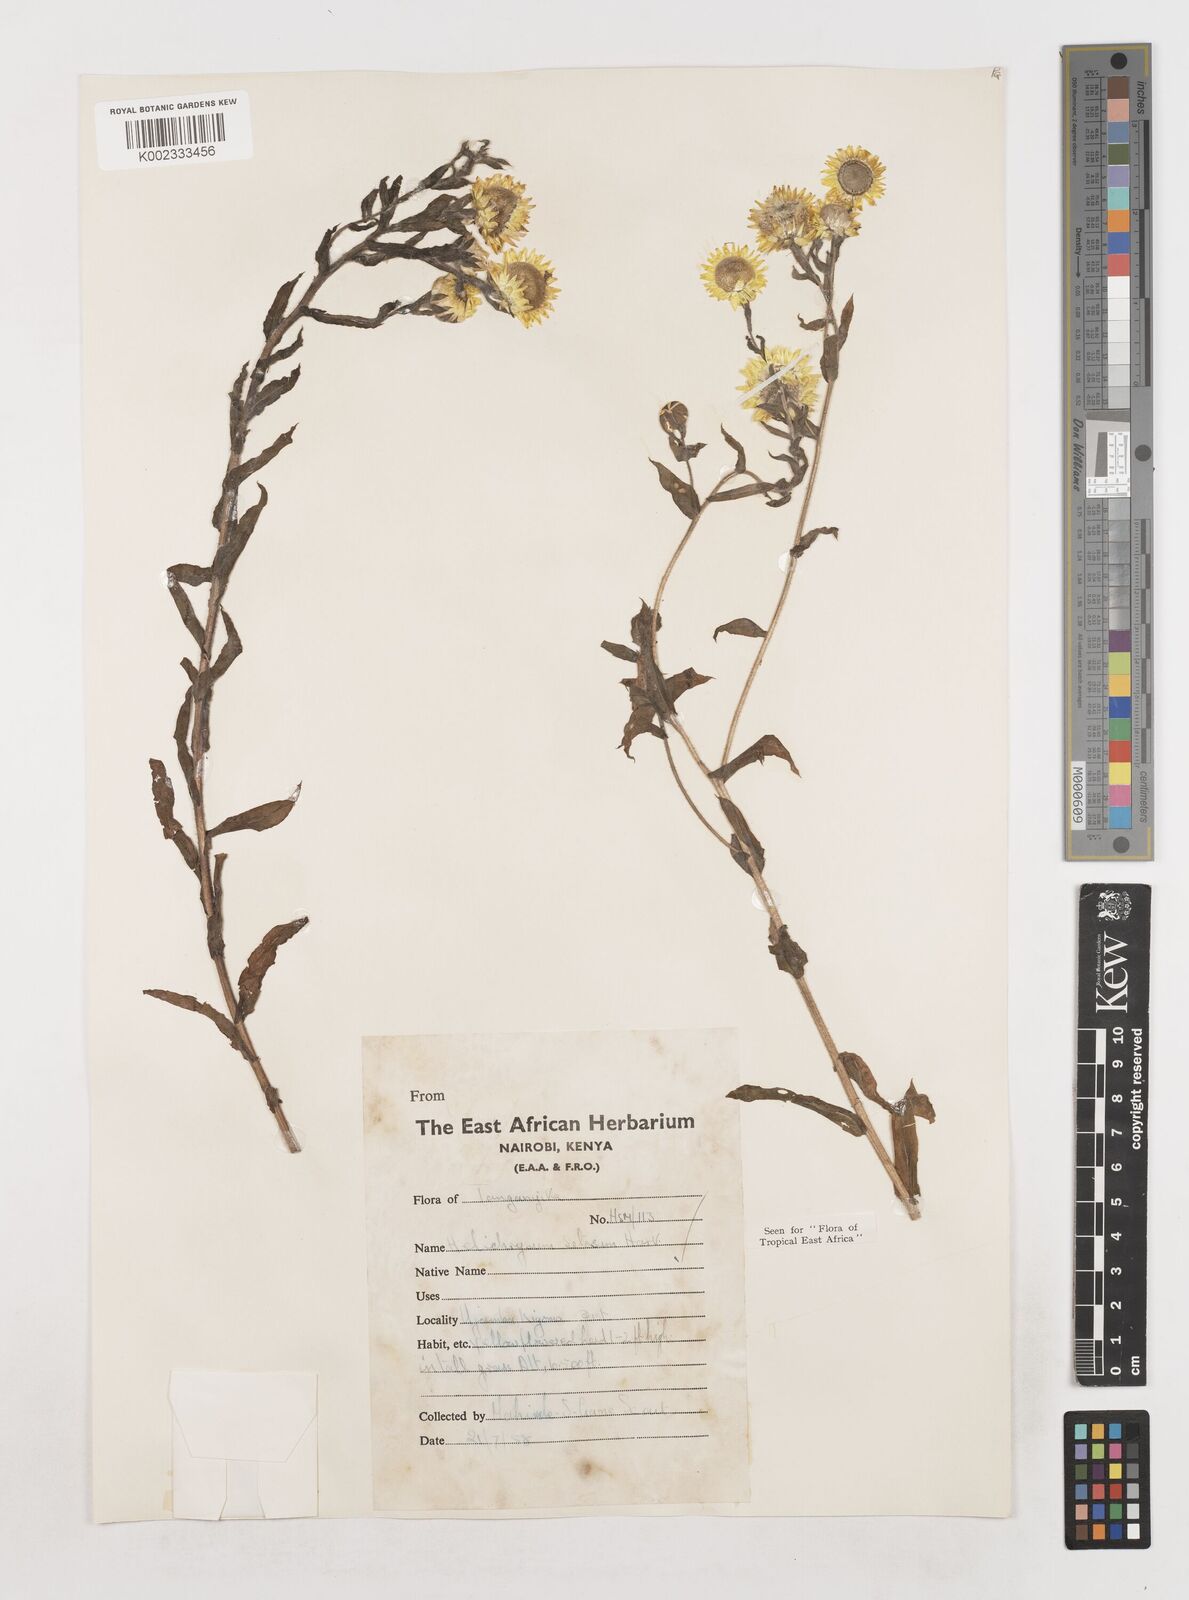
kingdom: Plantae
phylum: Tracheophyta
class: Magnoliopsida
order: Asterales
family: Asteraceae
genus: Helichrysum
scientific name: Helichrysum setosum
